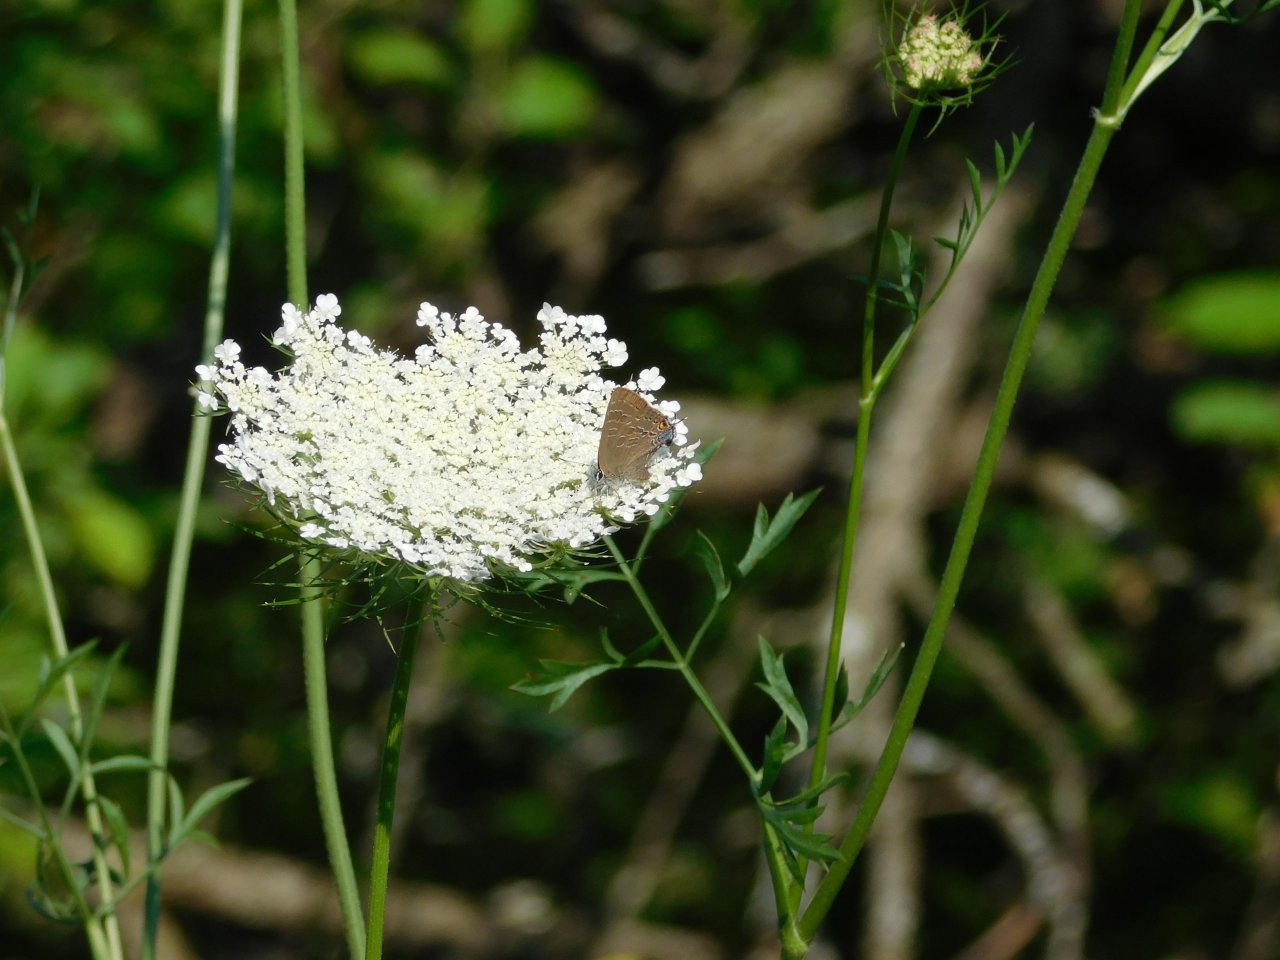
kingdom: Animalia
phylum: Arthropoda
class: Insecta
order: Lepidoptera
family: Lycaenidae
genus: Strymon
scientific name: Strymon caryaevorus
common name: Hickory Hairstreak
